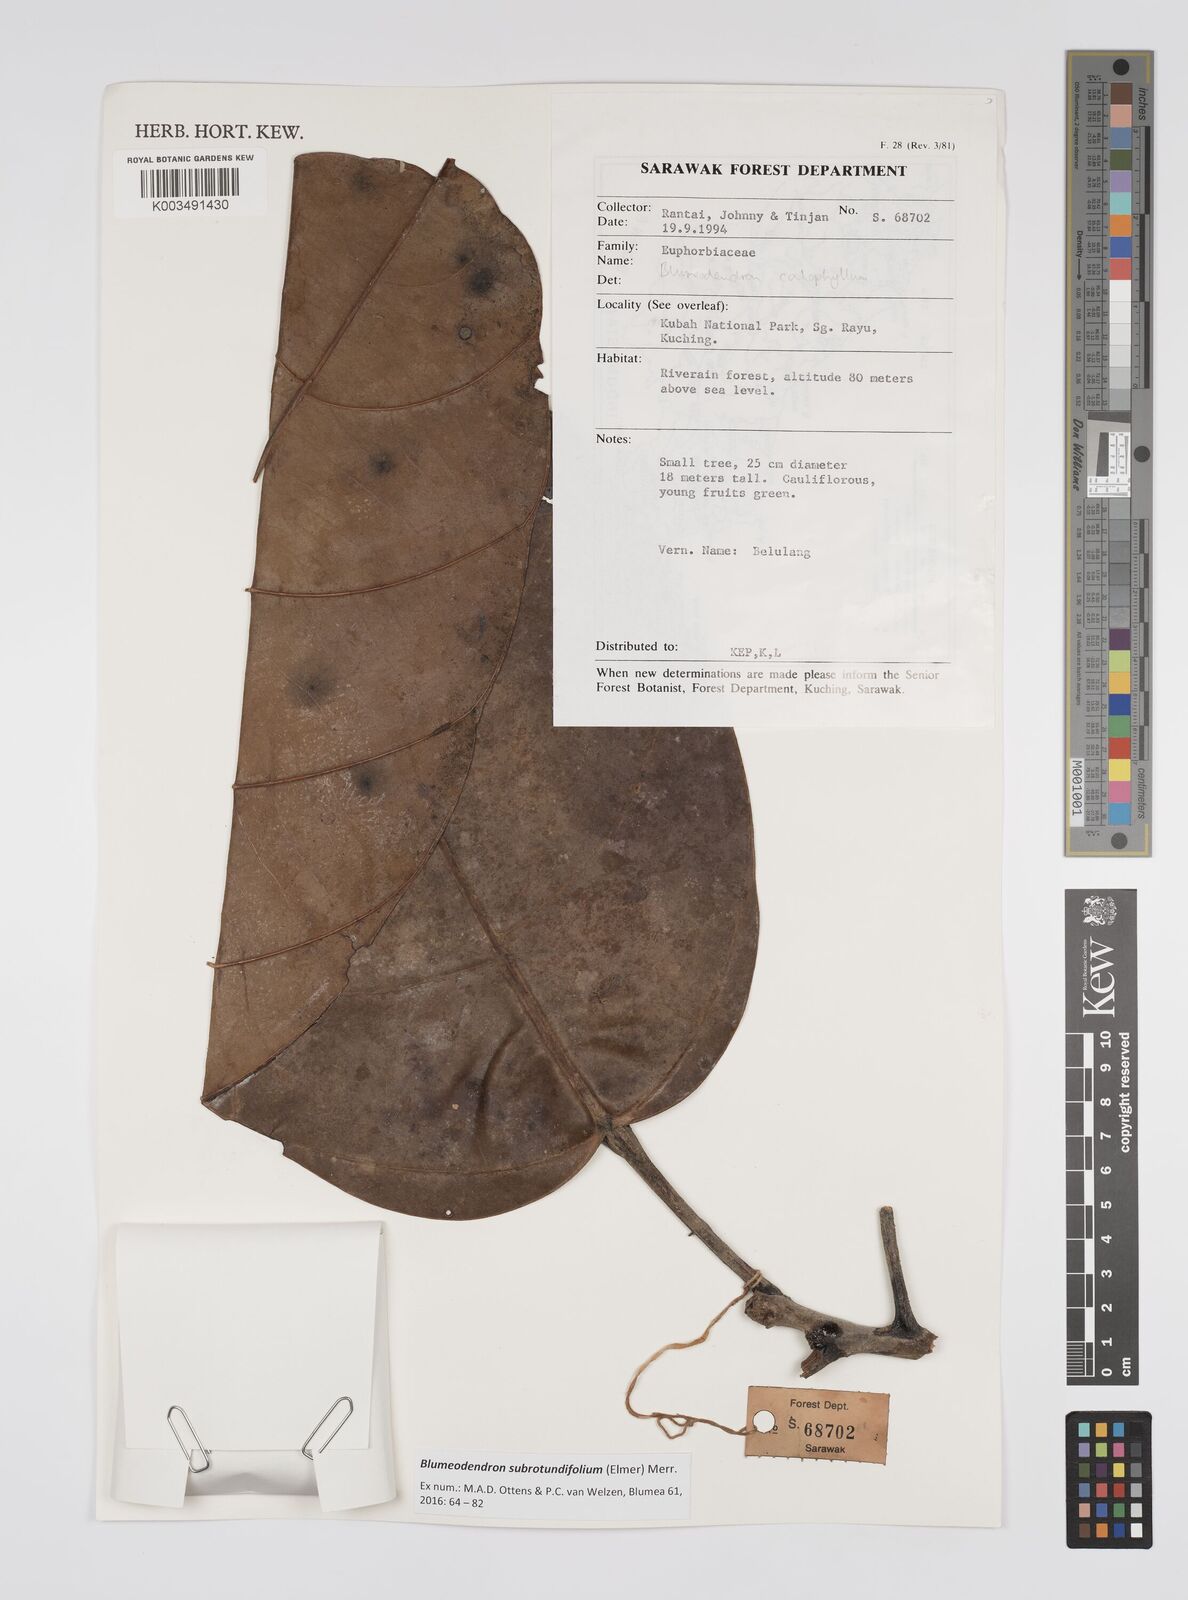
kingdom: Plantae
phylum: Tracheophyta
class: Magnoliopsida
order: Malpighiales
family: Euphorbiaceae
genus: Blumeodendron
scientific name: Blumeodendron subrotundifolium
